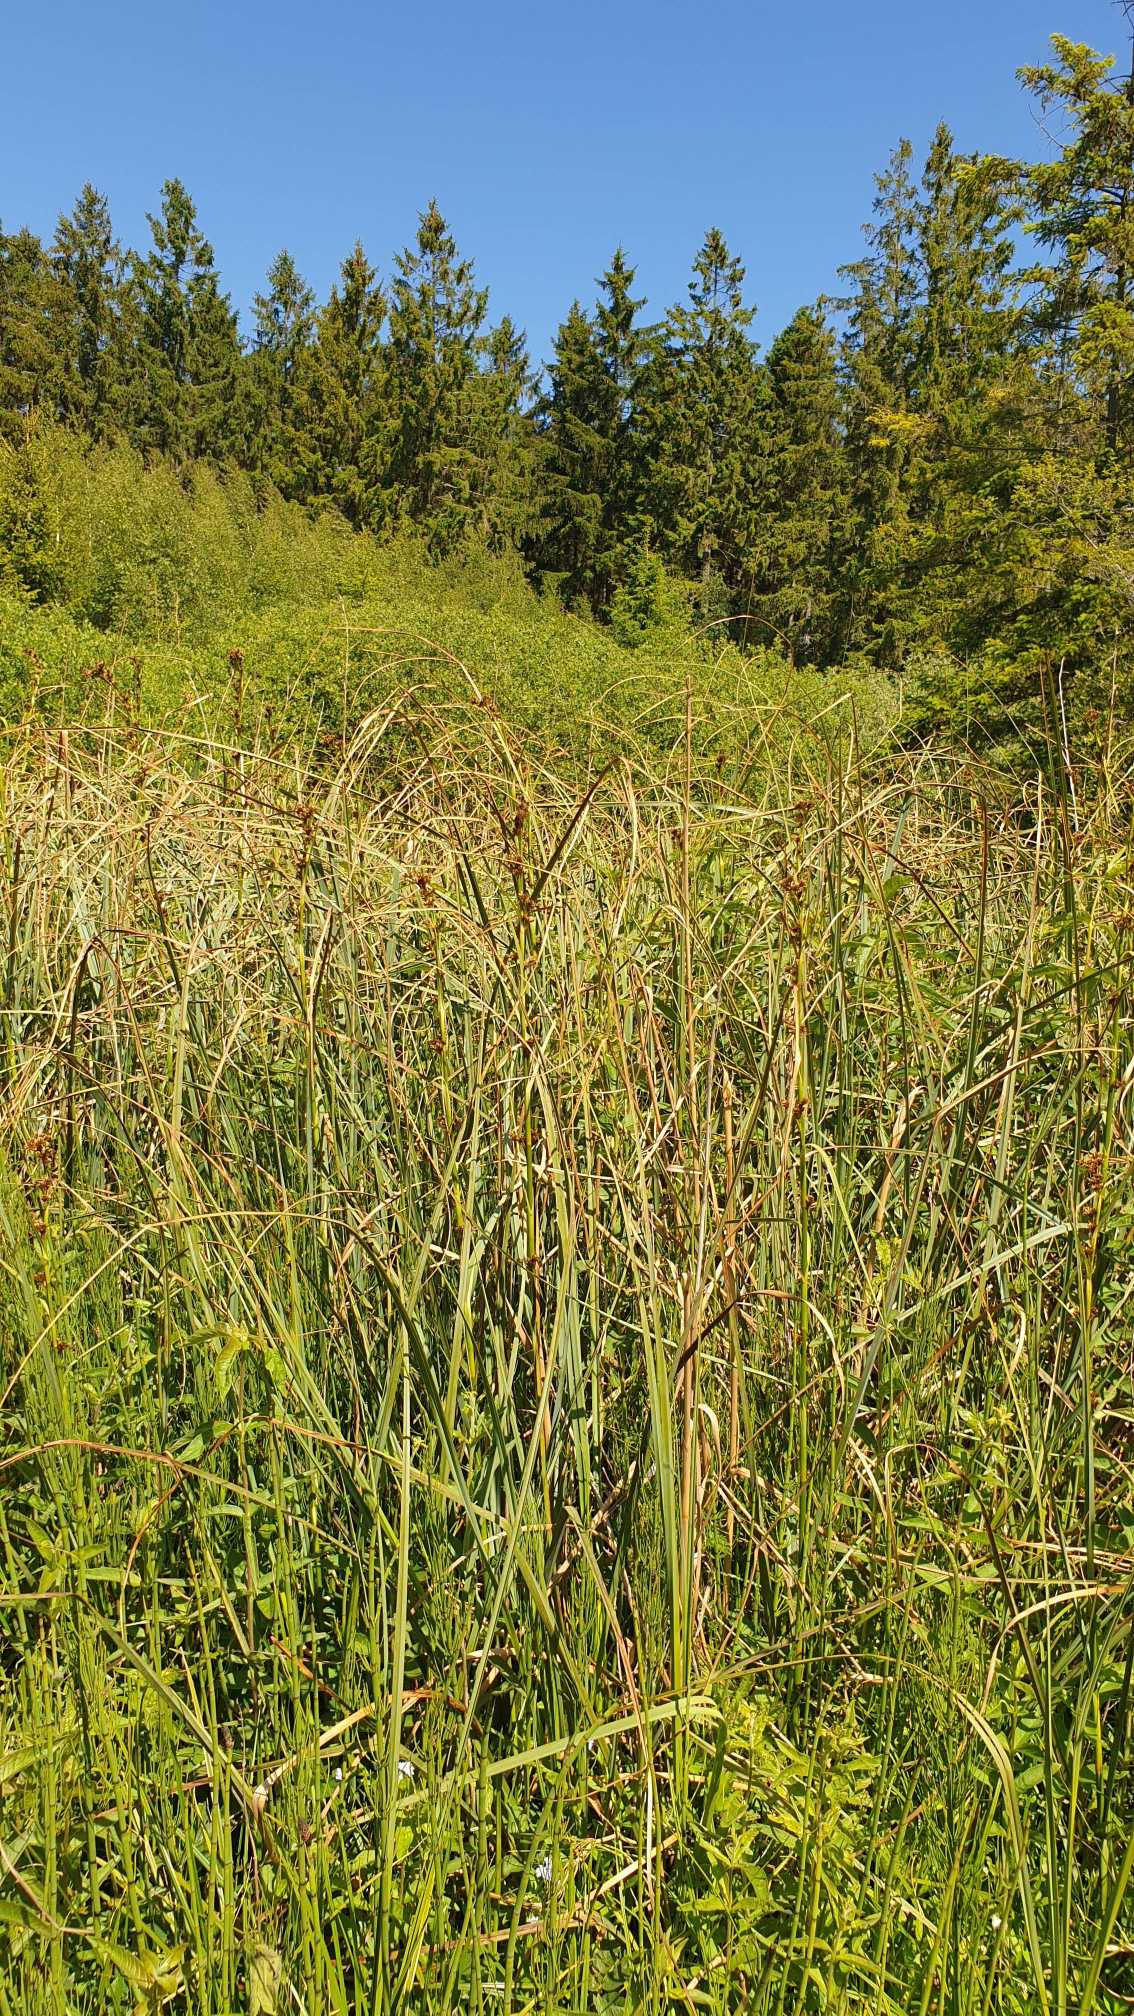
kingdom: Plantae
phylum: Tracheophyta
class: Liliopsida
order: Poales
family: Cyperaceae
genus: Cladium
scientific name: Cladium mariscus
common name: Hvas avneknippe
